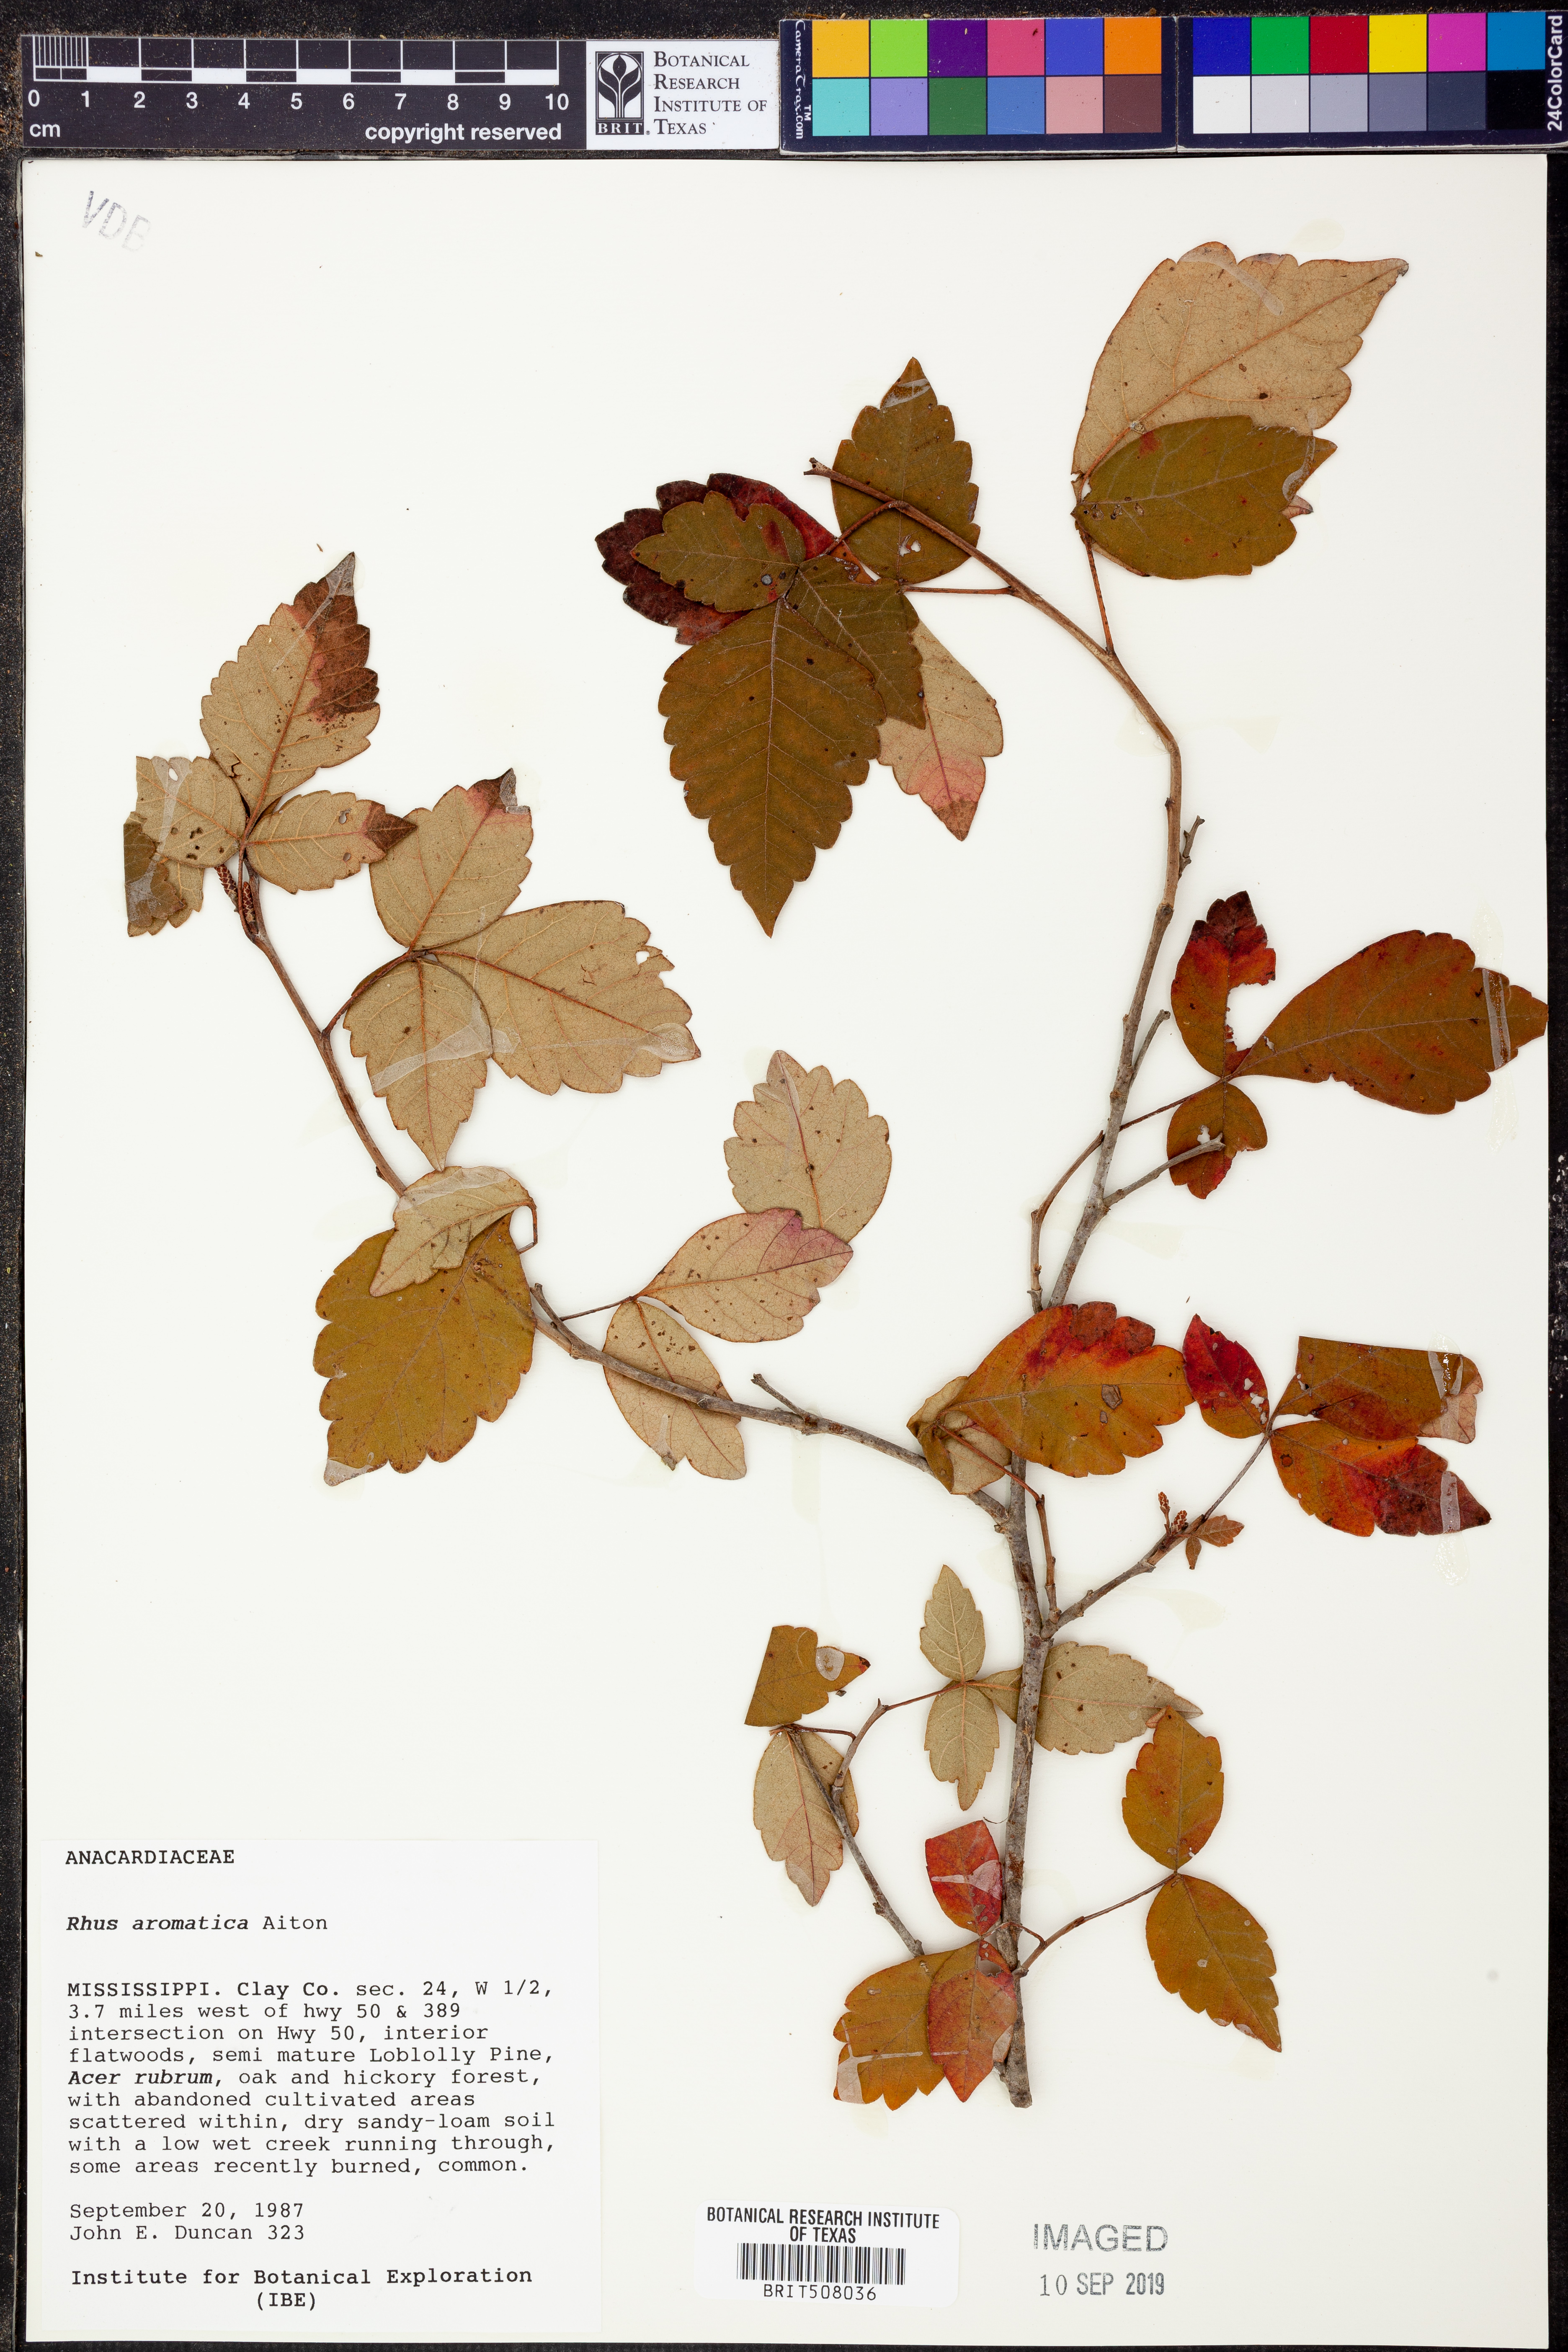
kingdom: Plantae
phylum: Tracheophyta
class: Magnoliopsida
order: Sapindales
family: Anacardiaceae
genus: Rhus
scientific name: Rhus aromatica
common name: Aromatic sumac
